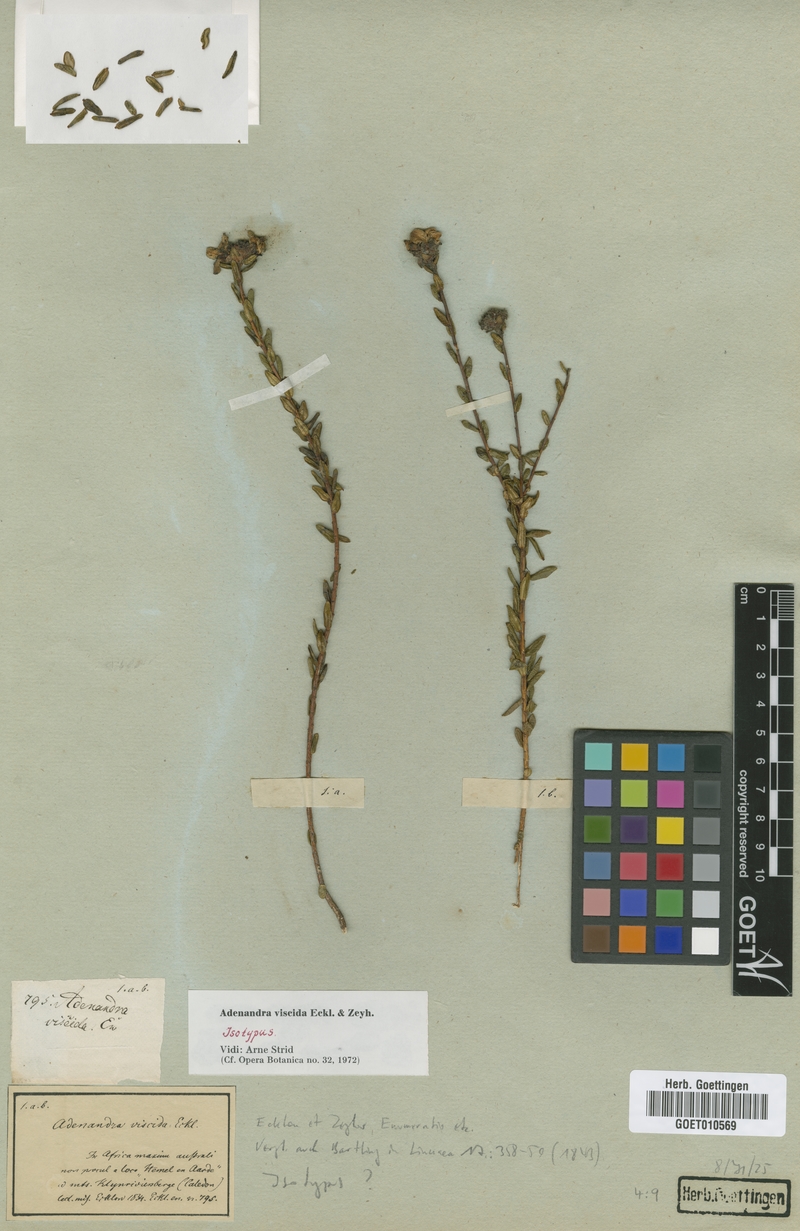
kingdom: Plantae
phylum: Tracheophyta
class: Magnoliopsida
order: Sapindales
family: Rutaceae
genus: Adenandra
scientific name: Adenandra viscida
